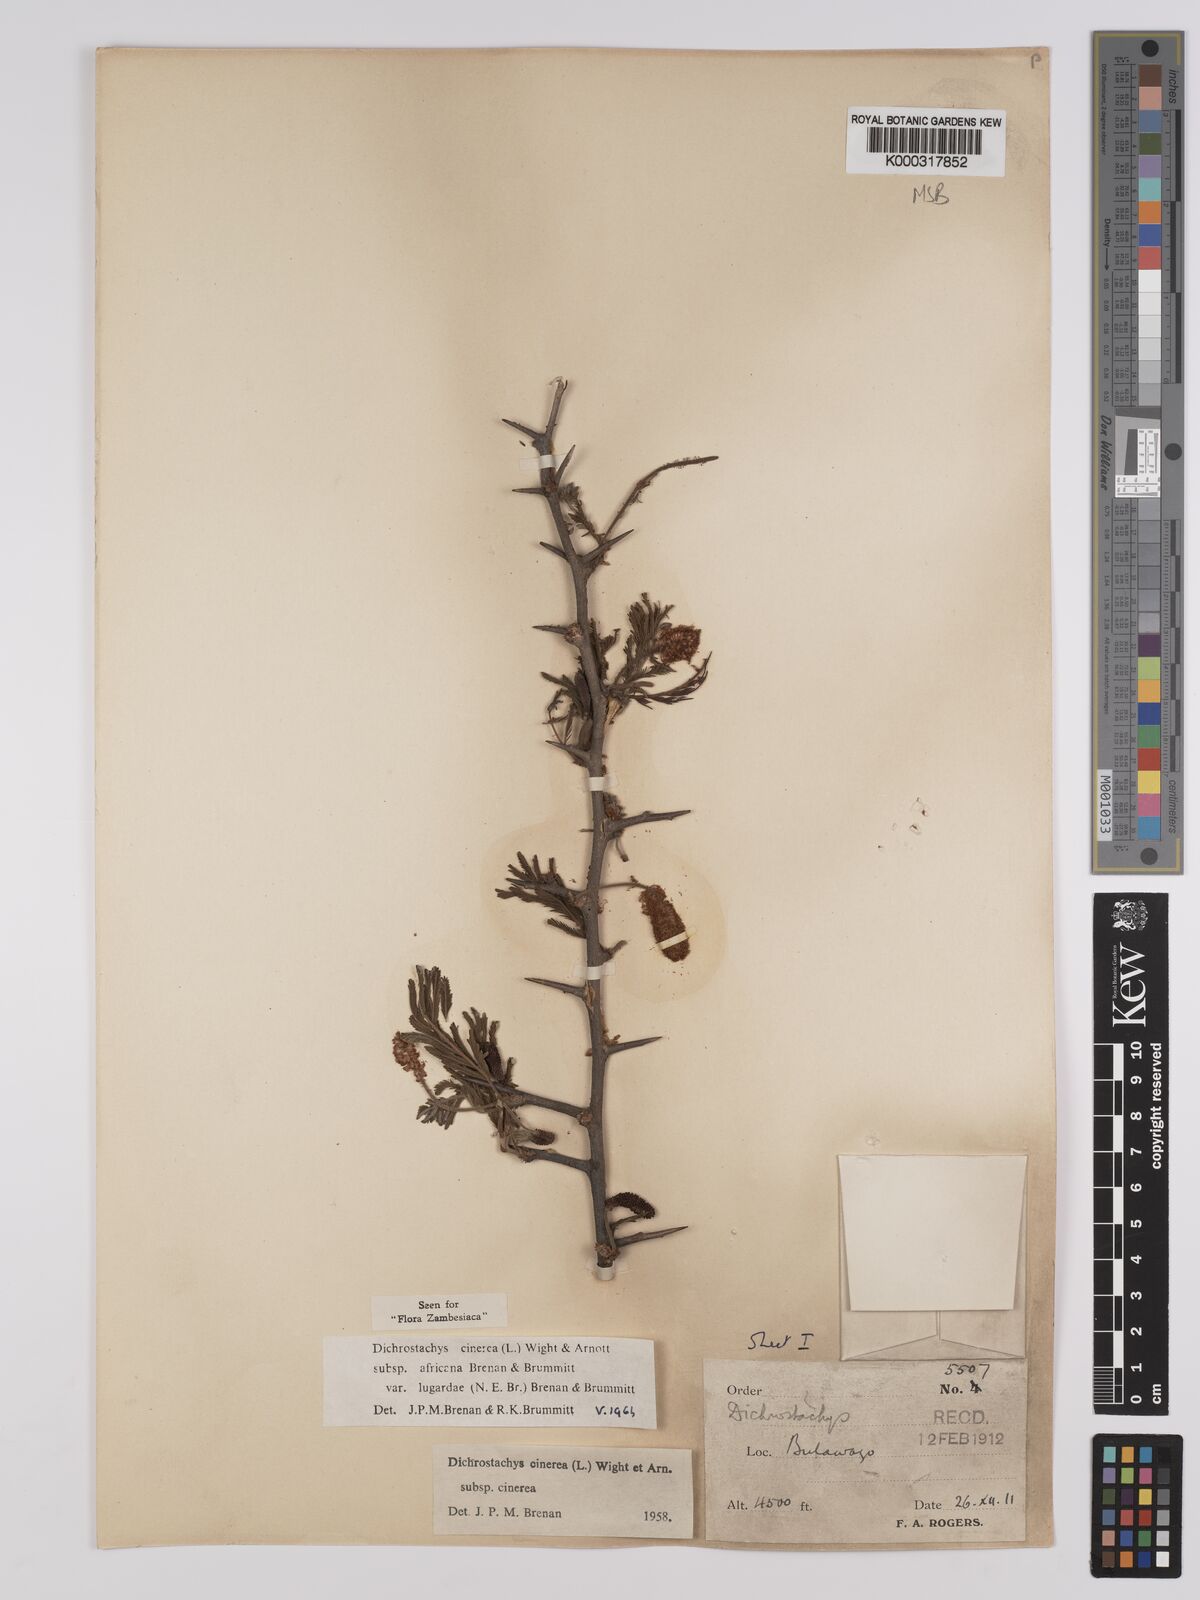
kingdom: Plantae
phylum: Tracheophyta
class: Magnoliopsida
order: Fabales
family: Fabaceae
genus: Dichrostachys
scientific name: Dichrostachys cinerea
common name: Sicklebush
